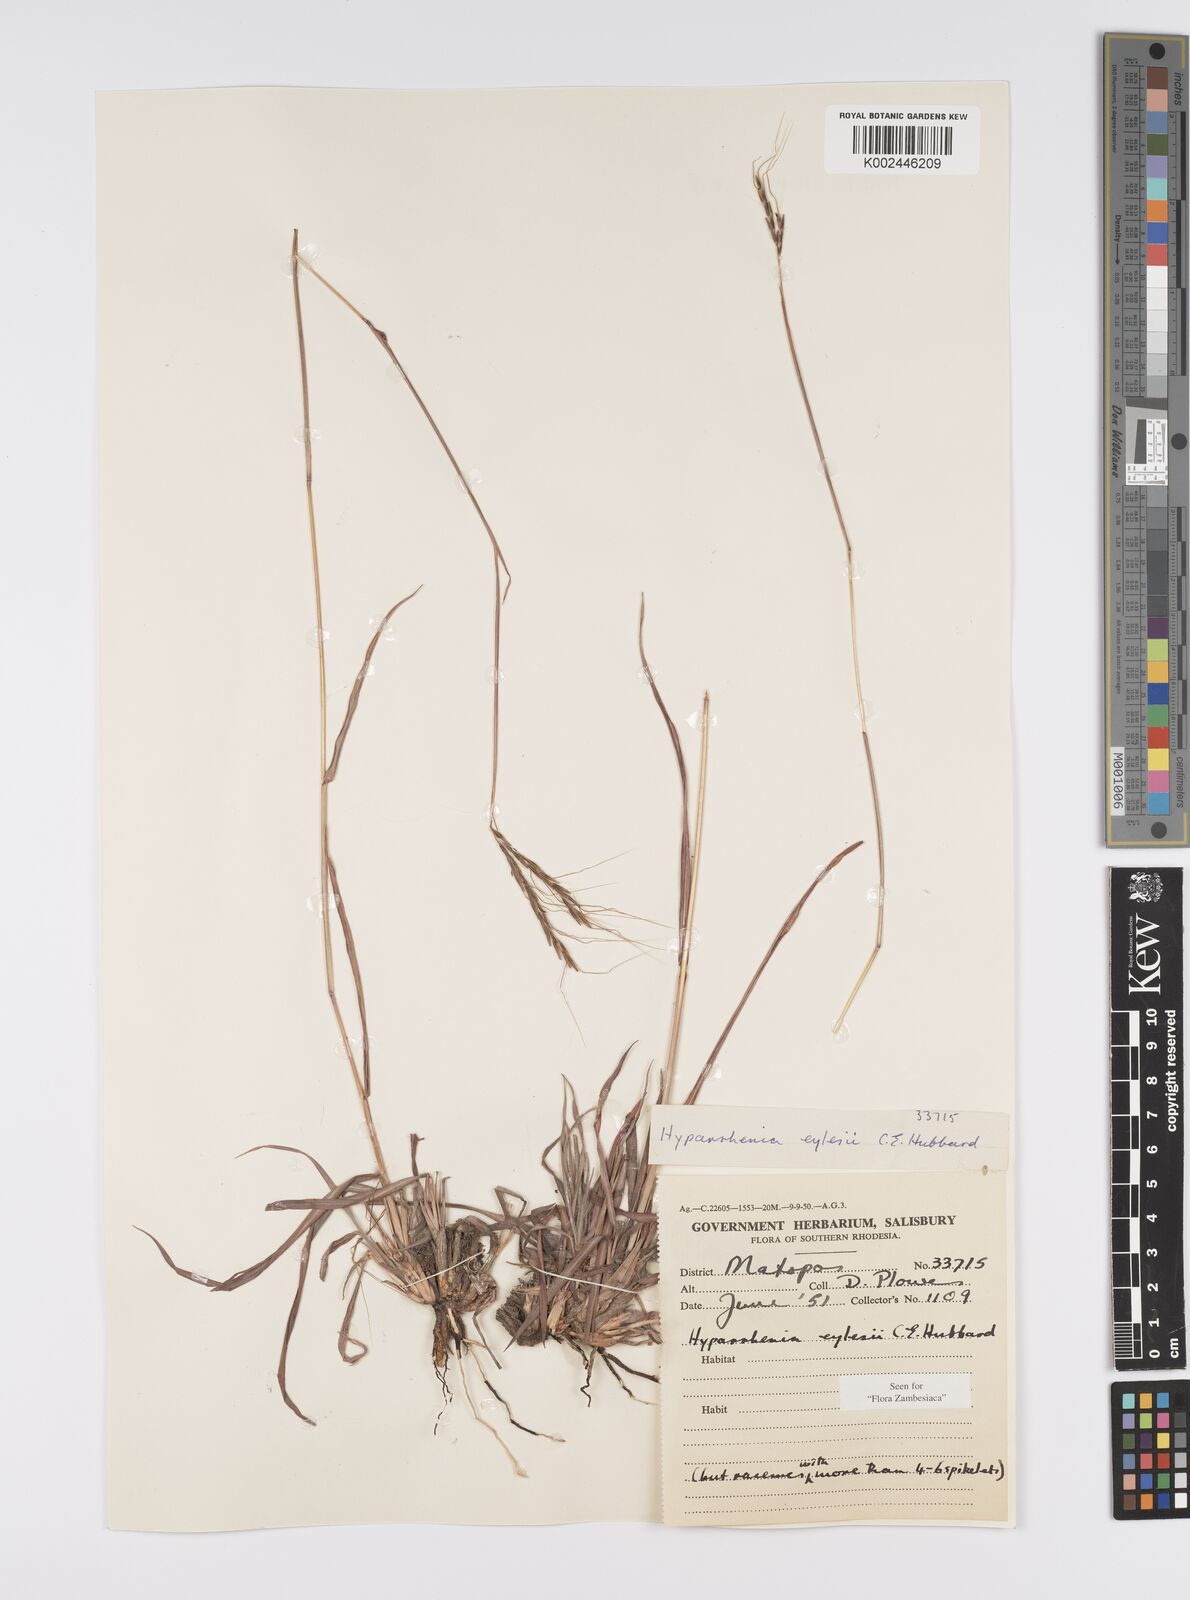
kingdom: Plantae
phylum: Tracheophyta
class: Liliopsida
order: Poales
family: Poaceae
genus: Elymandra
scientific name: Elymandra grallata
